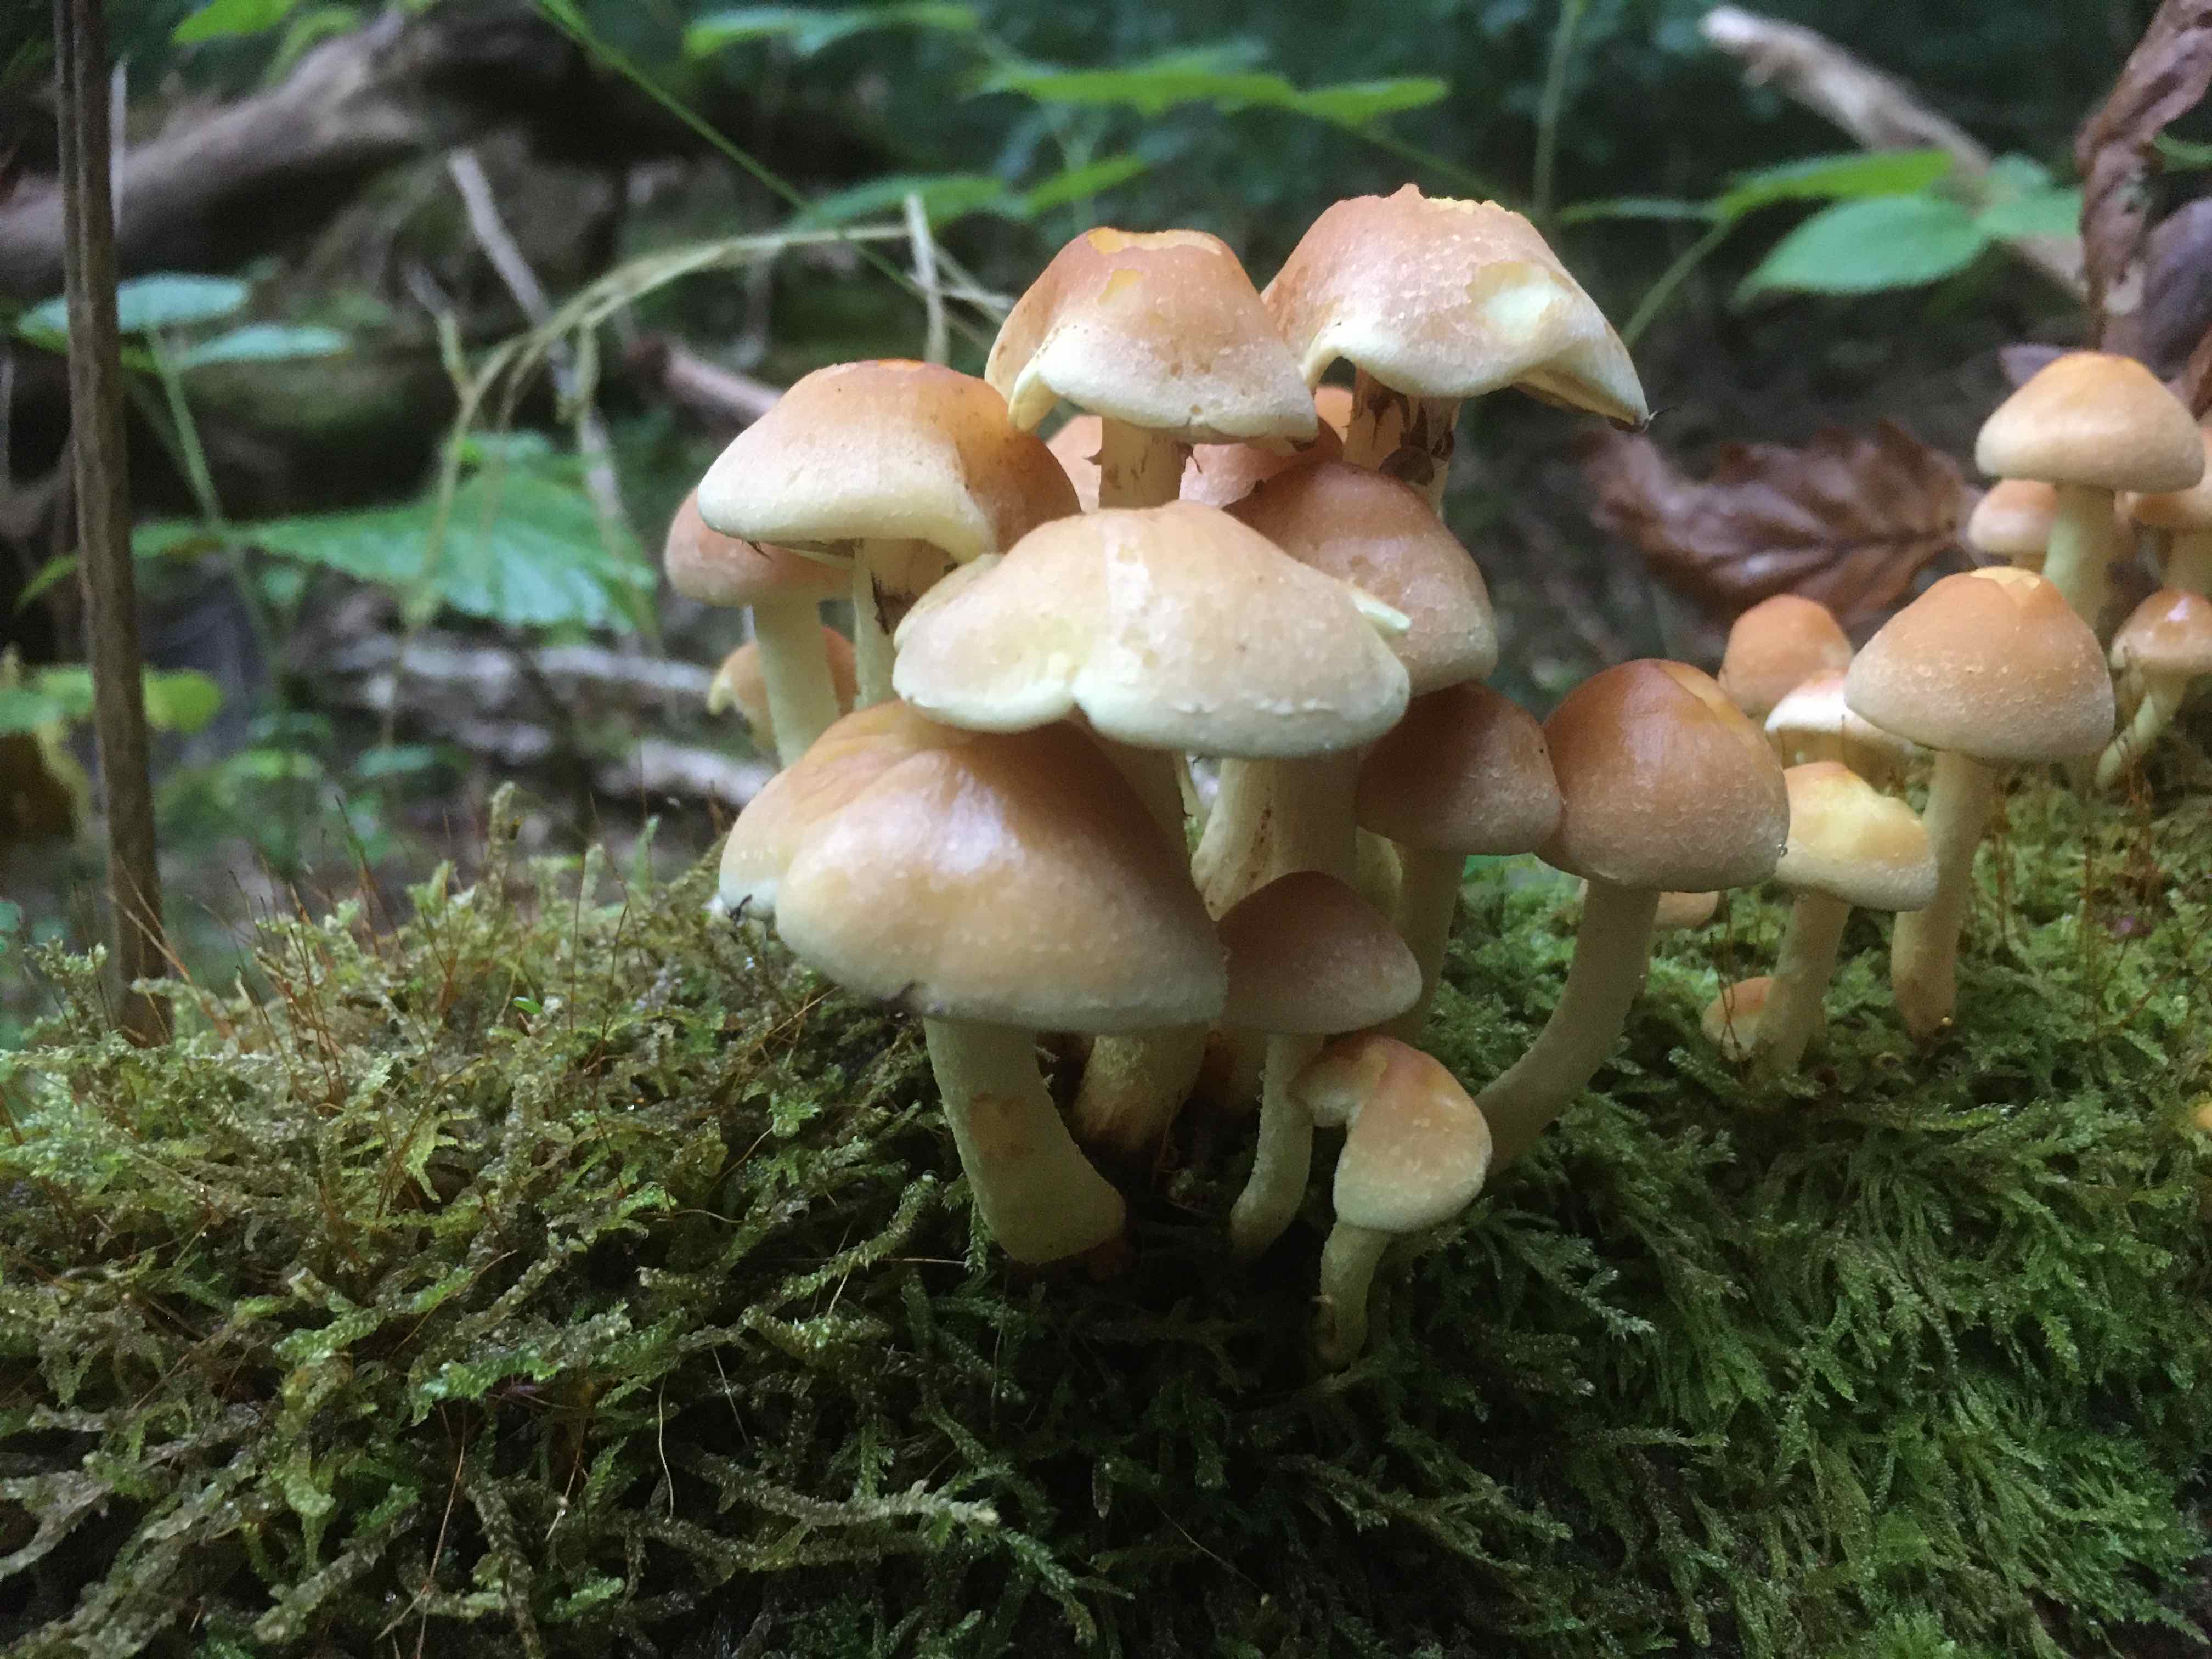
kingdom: Fungi
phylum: Basidiomycota
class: Agaricomycetes
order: Agaricales
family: Strophariaceae
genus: Hypholoma
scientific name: Hypholoma fasciculare
